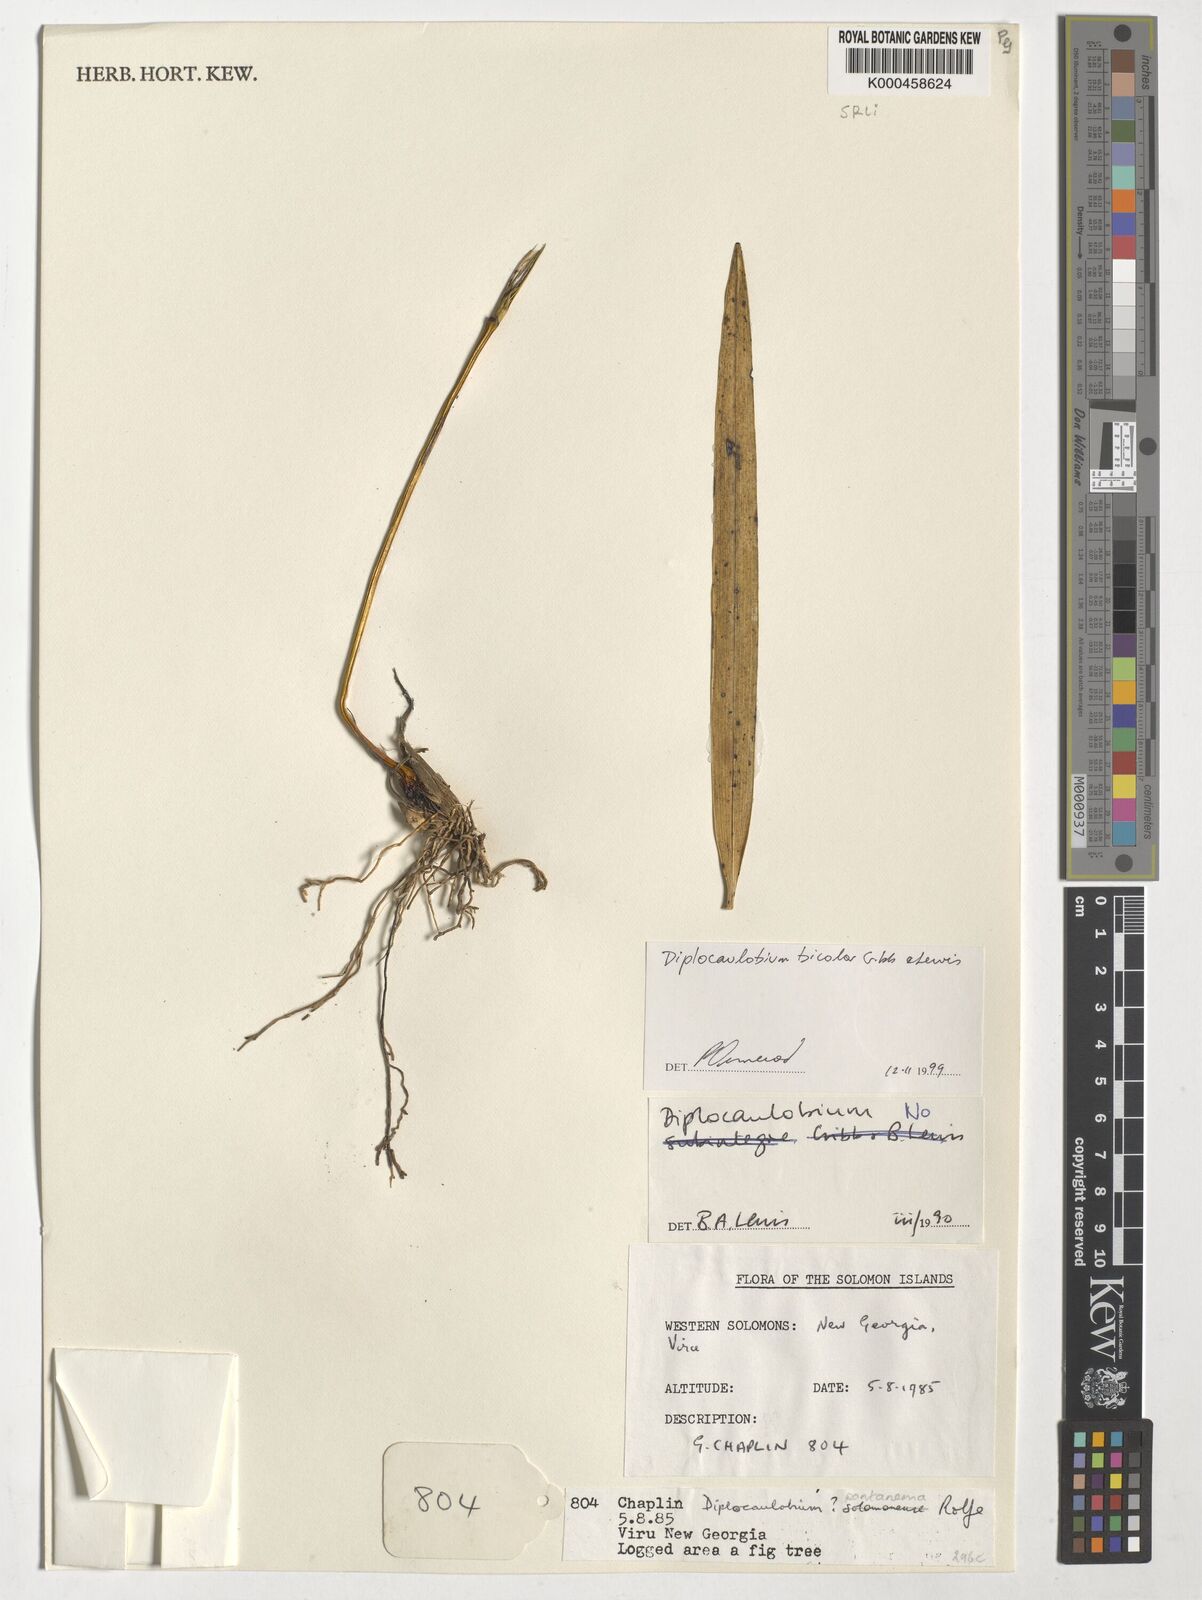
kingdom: Plantae
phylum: Tracheophyta
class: Liliopsida
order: Asparagales
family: Orchidaceae
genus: Dendrobium
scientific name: Dendrobium lewisiae
